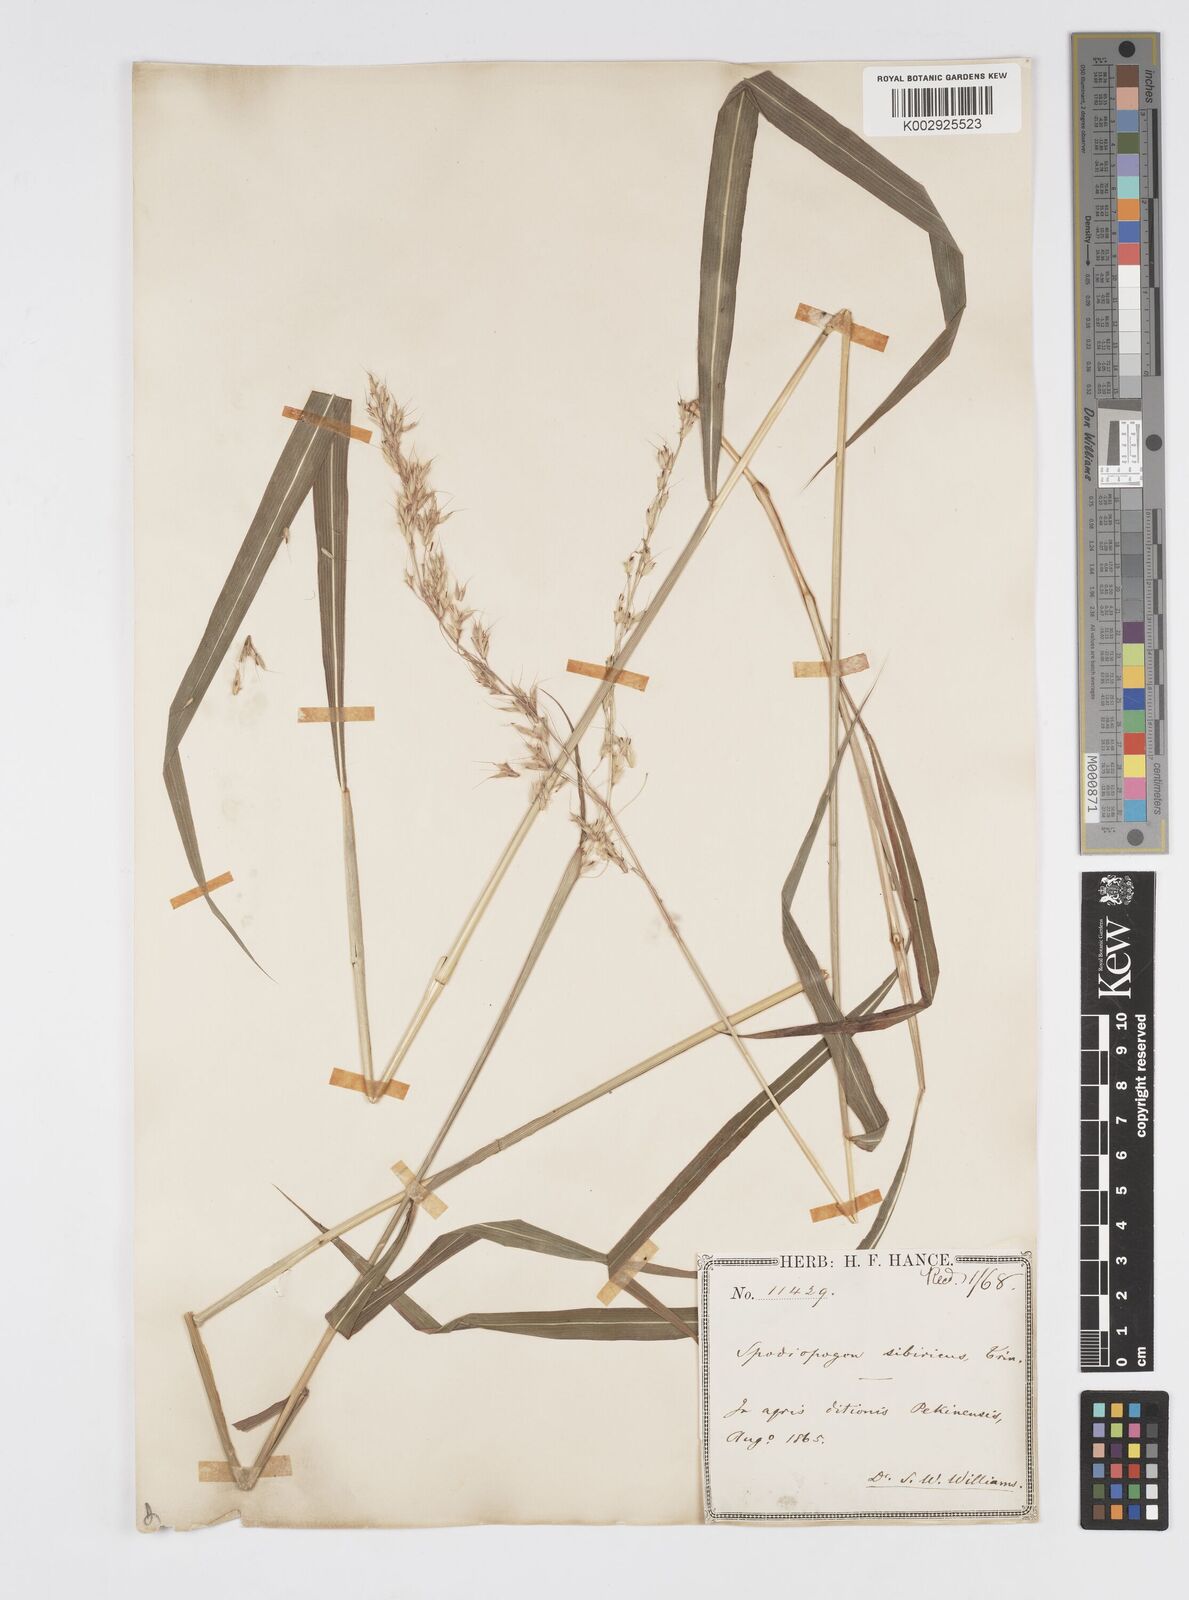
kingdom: Plantae
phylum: Tracheophyta
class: Liliopsida
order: Poales
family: Poaceae
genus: Spodiopogon
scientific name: Spodiopogon sibiricus
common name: Siberian graybeard
